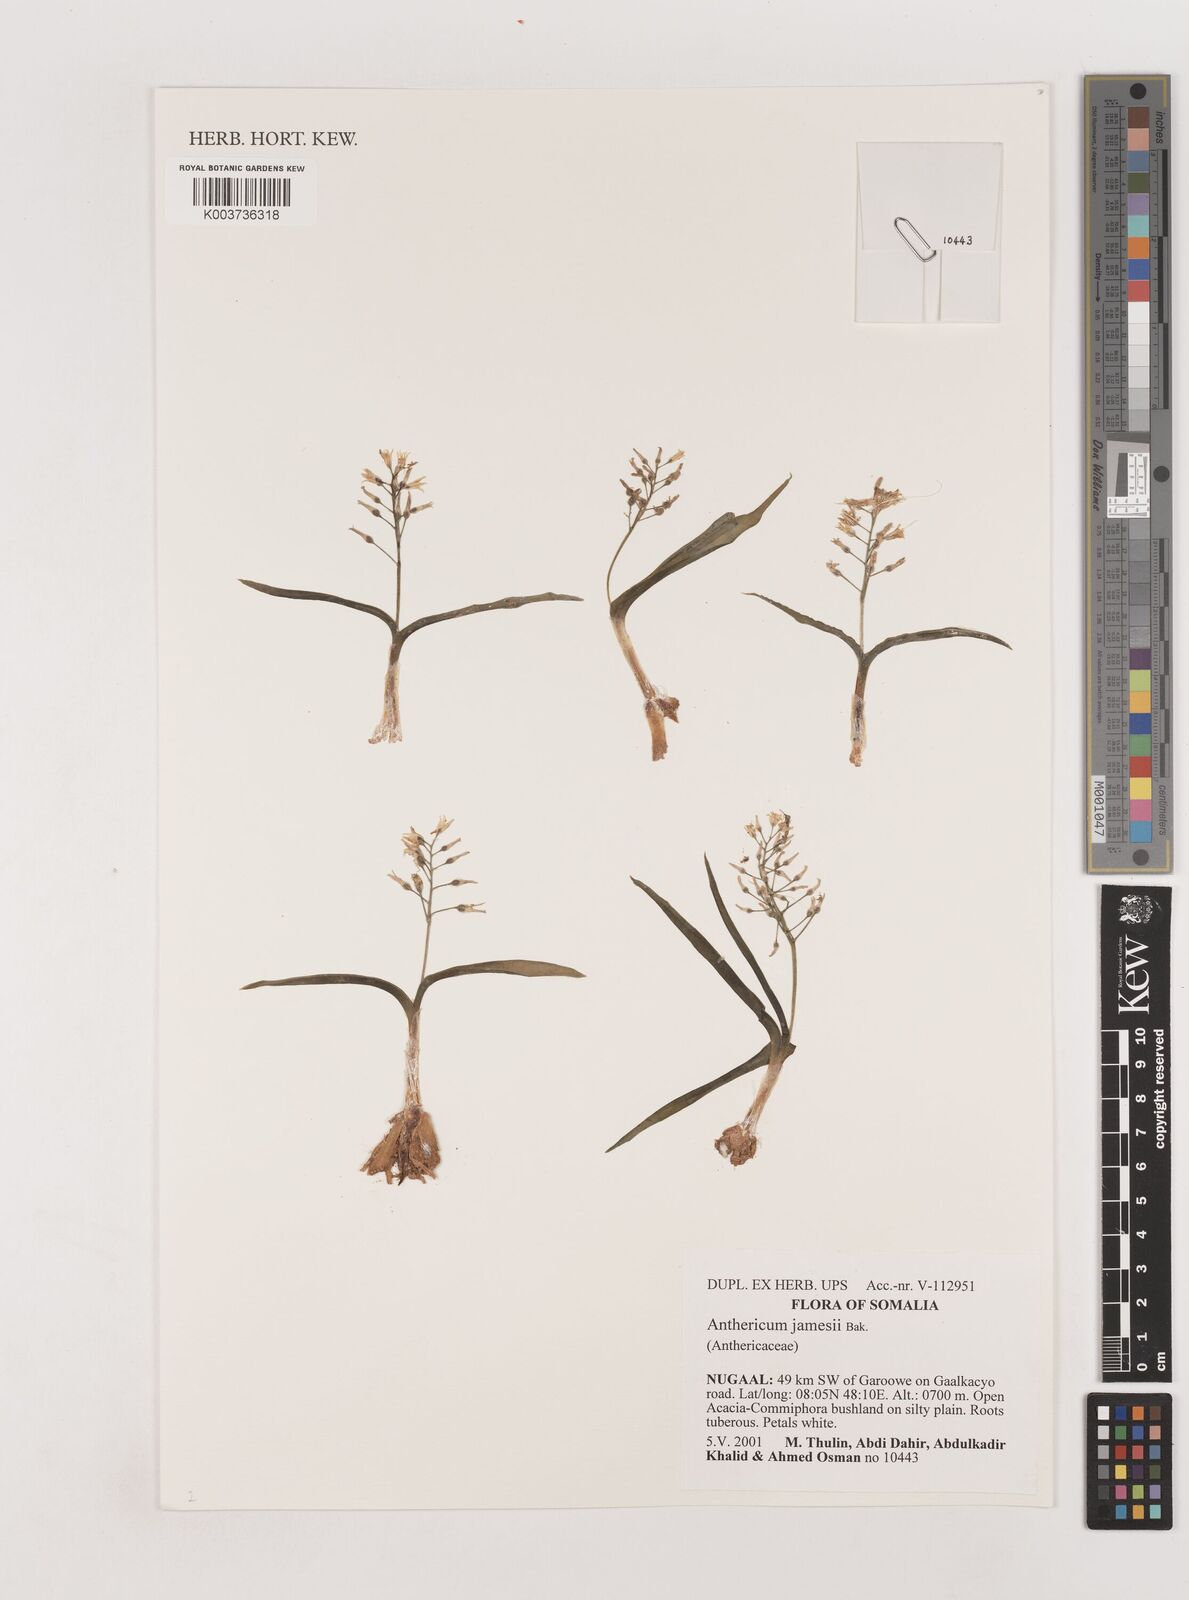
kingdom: Plantae
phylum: Tracheophyta
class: Liliopsida
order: Asparagales
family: Asparagaceae
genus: Anthericum
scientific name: Anthericum jamesii
